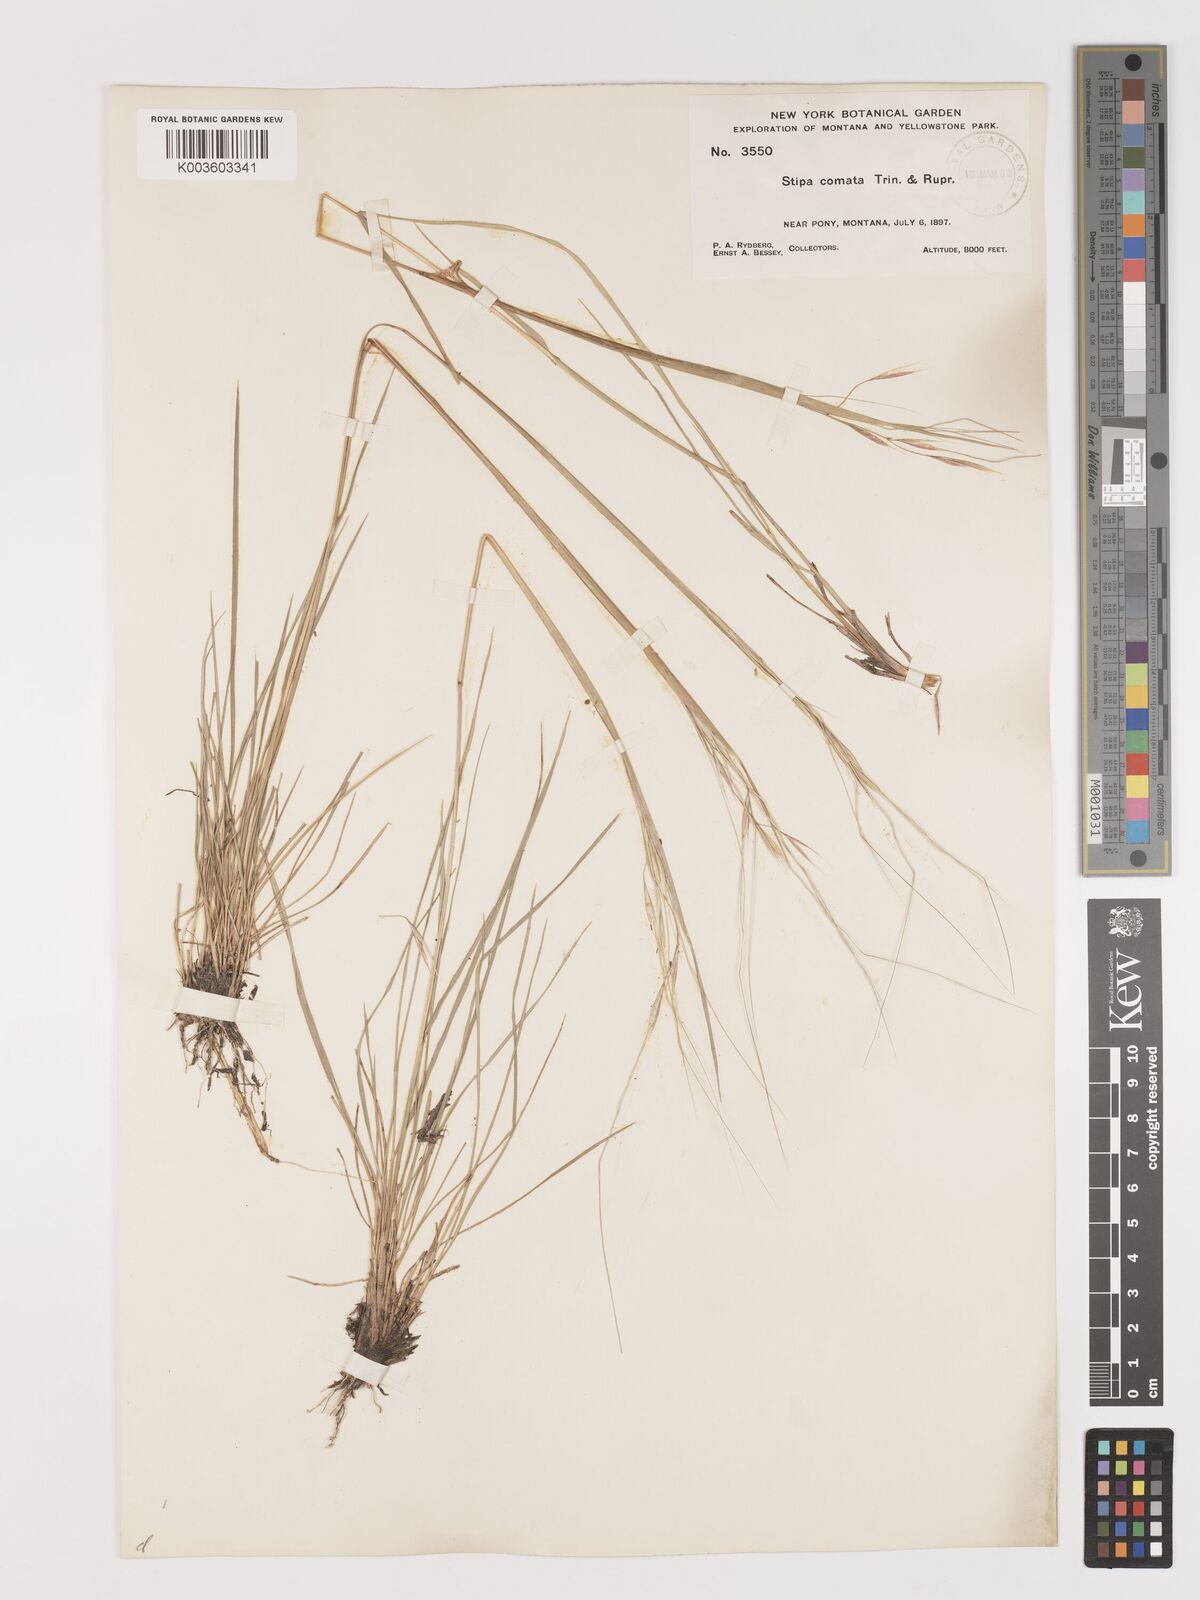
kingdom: Plantae
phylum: Tracheophyta
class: Liliopsida
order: Poales
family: Poaceae
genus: Hesperostipa
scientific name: Hesperostipa comata
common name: Needle-and-thread grass
